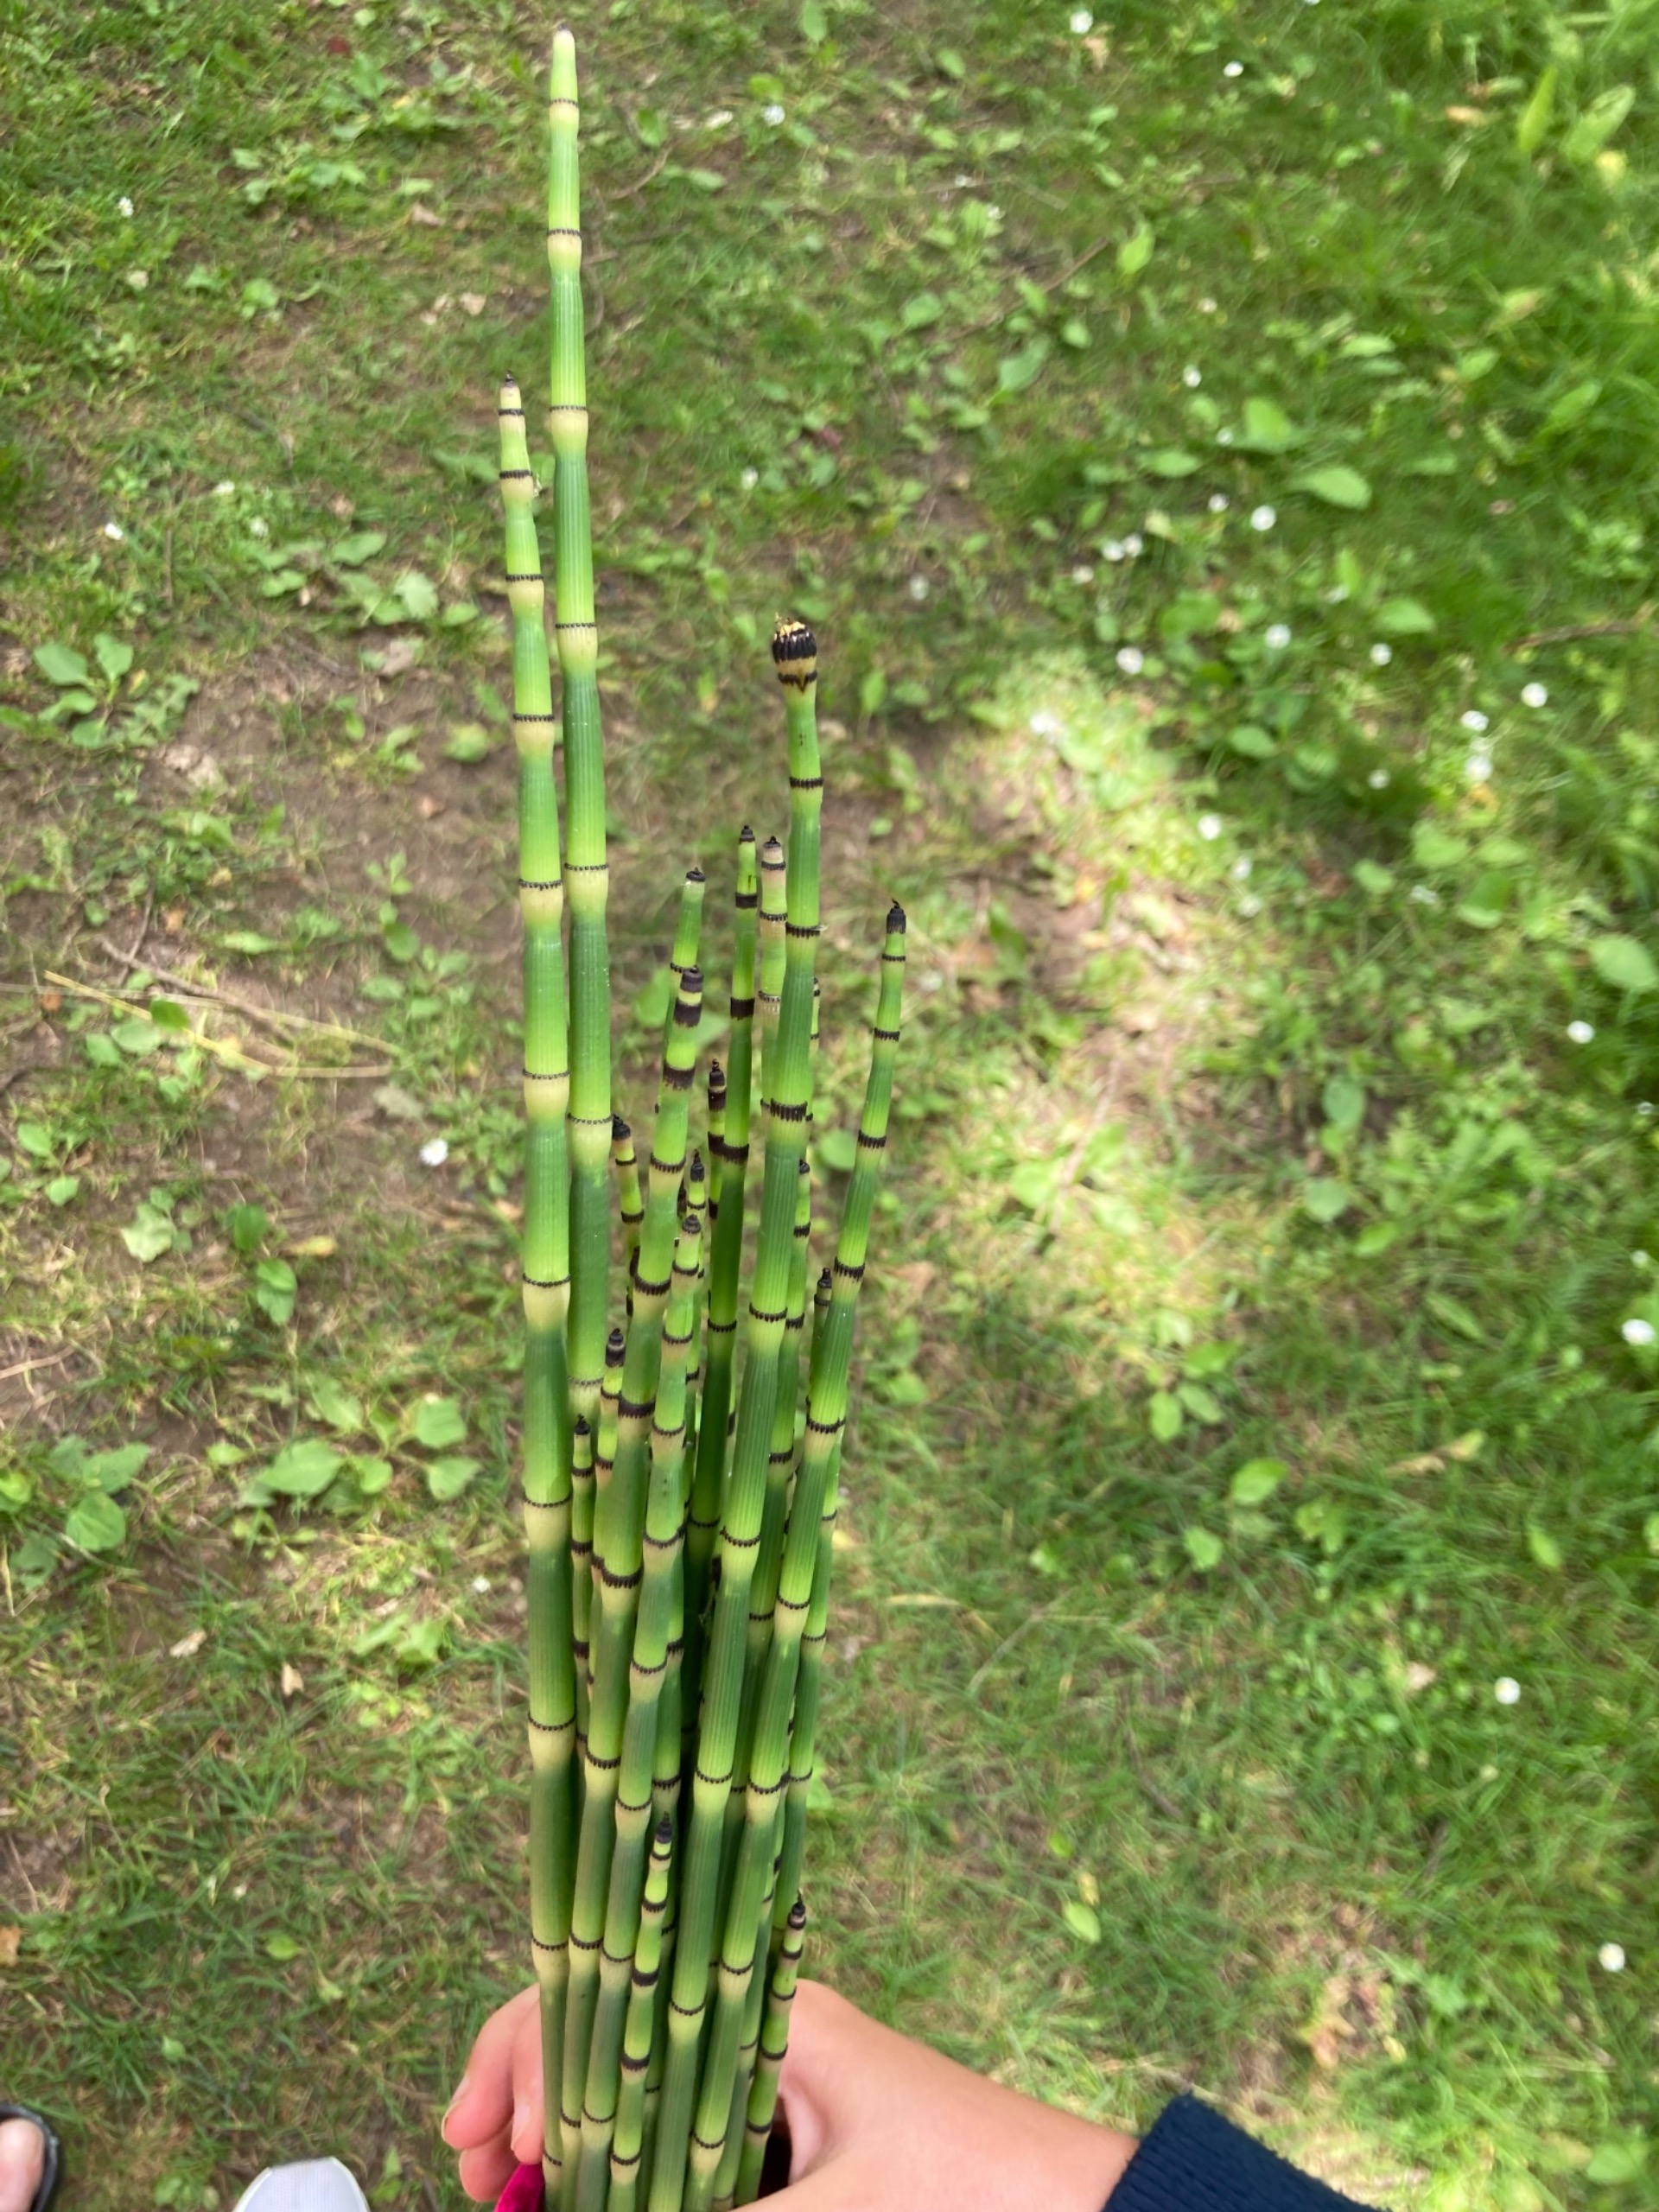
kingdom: Plantae
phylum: Tracheophyta
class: Polypodiopsida
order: Equisetales
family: Equisetaceae
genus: Equisetum
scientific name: Equisetum hyemale
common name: Skavgræs
